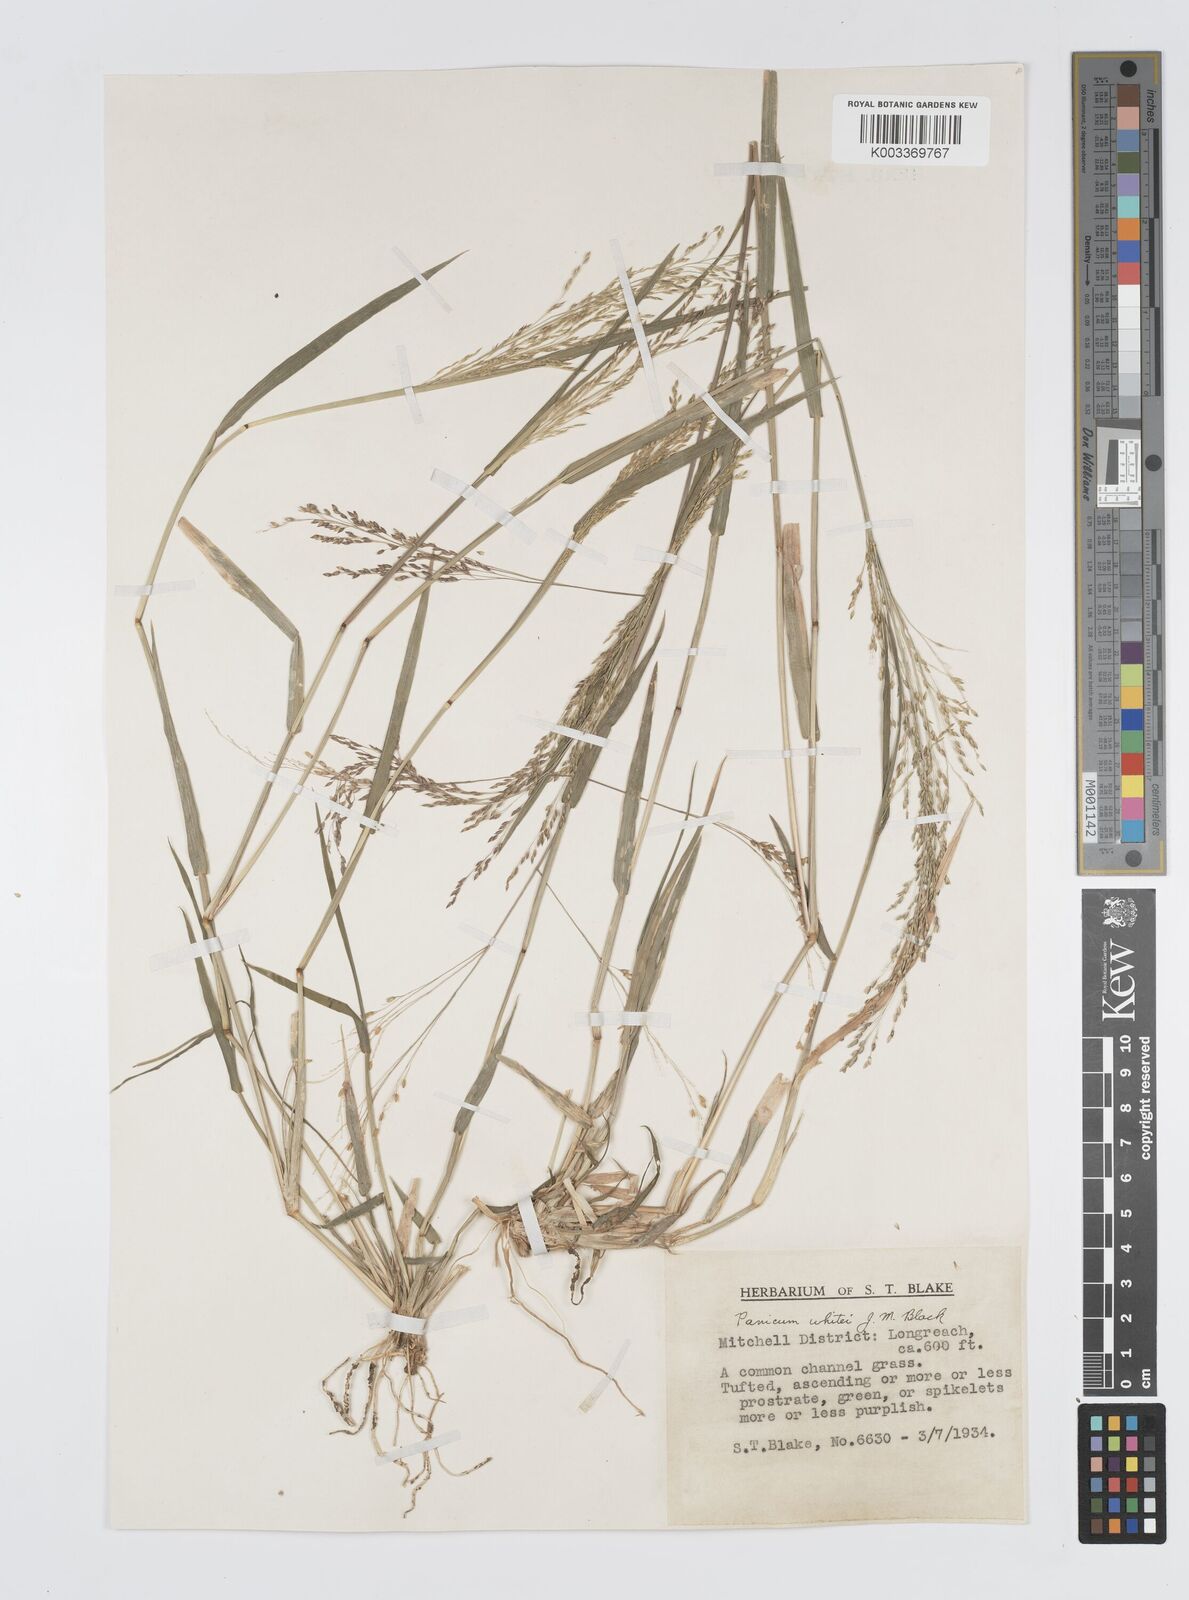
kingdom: Plantae
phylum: Tracheophyta
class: Liliopsida
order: Poales
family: Poaceae
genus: Panicum
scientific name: Panicum laevinode
